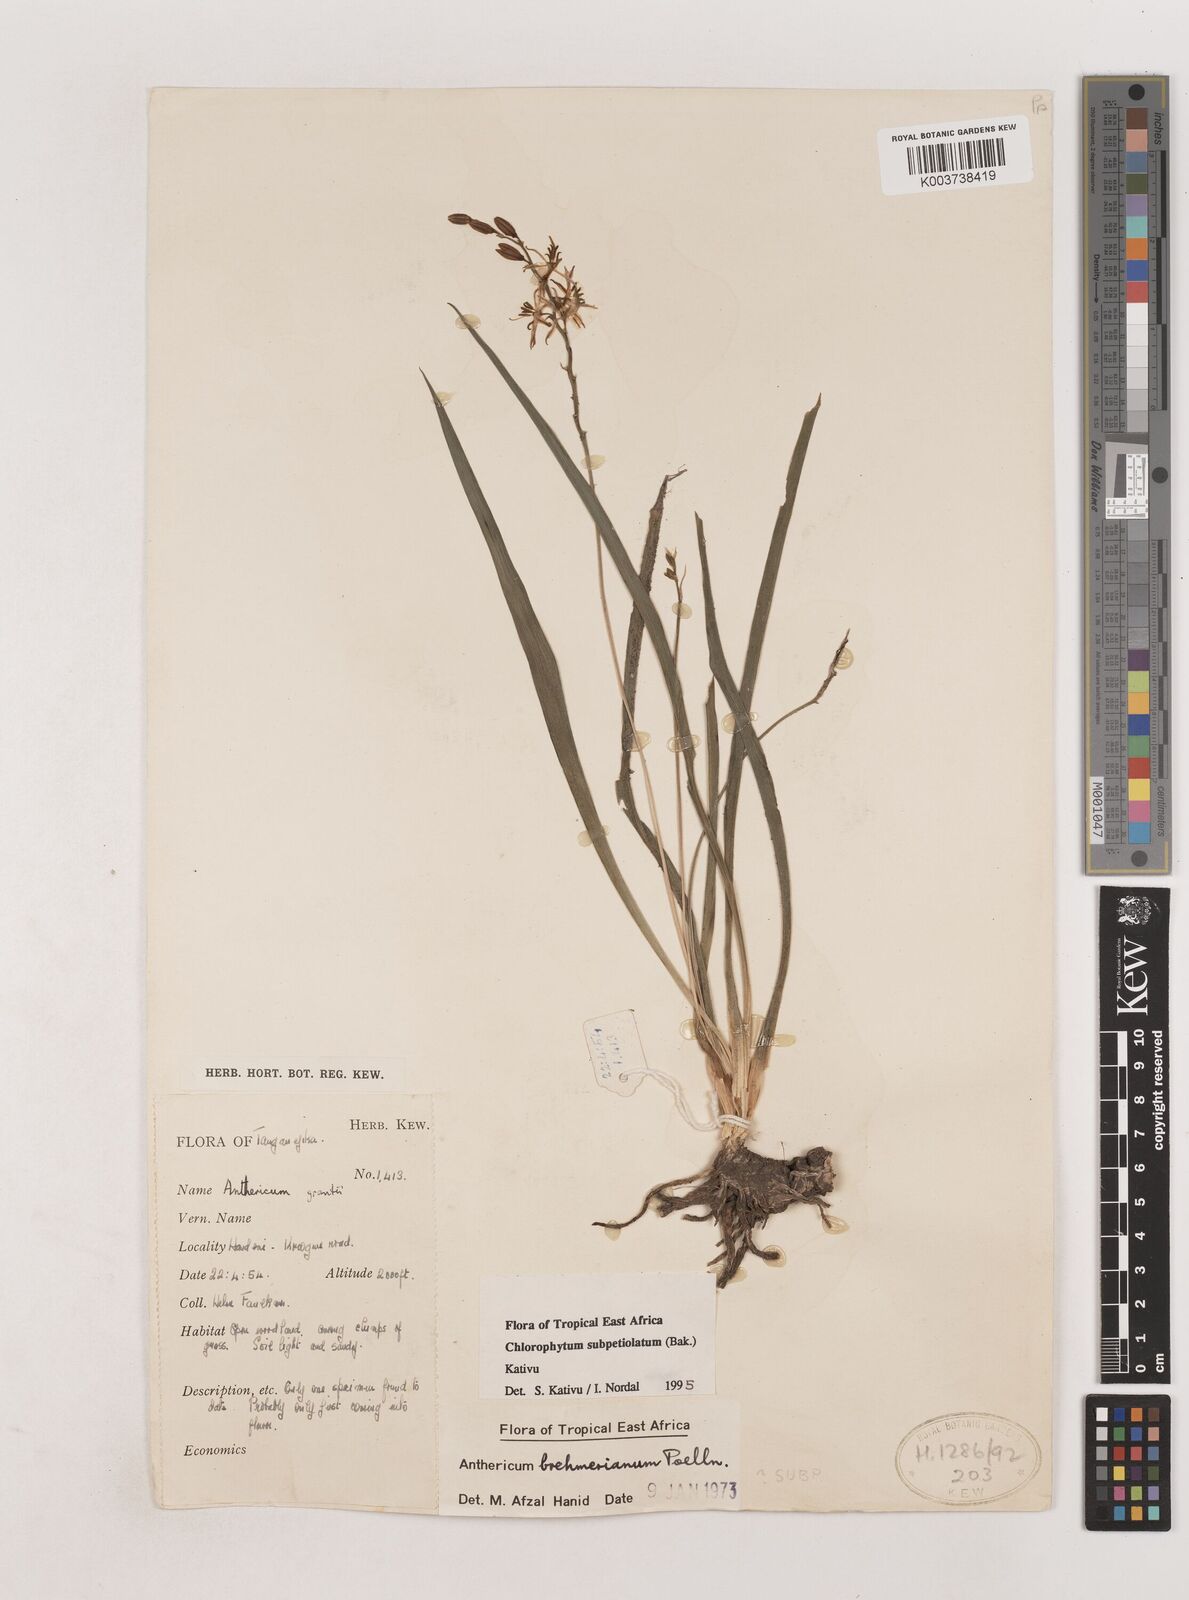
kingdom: Plantae
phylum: Tracheophyta
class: Liliopsida
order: Asparagales
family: Asparagaceae
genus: Chlorophytum
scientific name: Chlorophytum subpetiolatum
